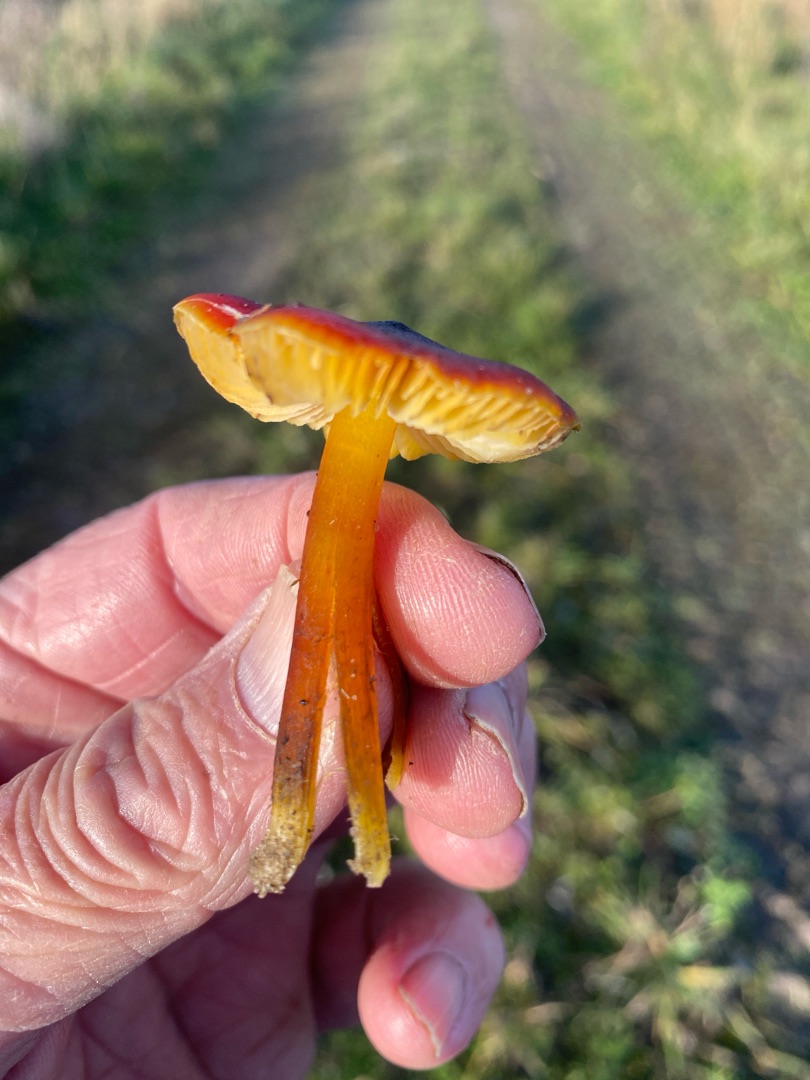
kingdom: Fungi
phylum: Basidiomycota
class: Agaricomycetes
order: Agaricales
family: Hygrophoraceae
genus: Hygrocybe
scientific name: Hygrocybe conica
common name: Kegle-vokshat
